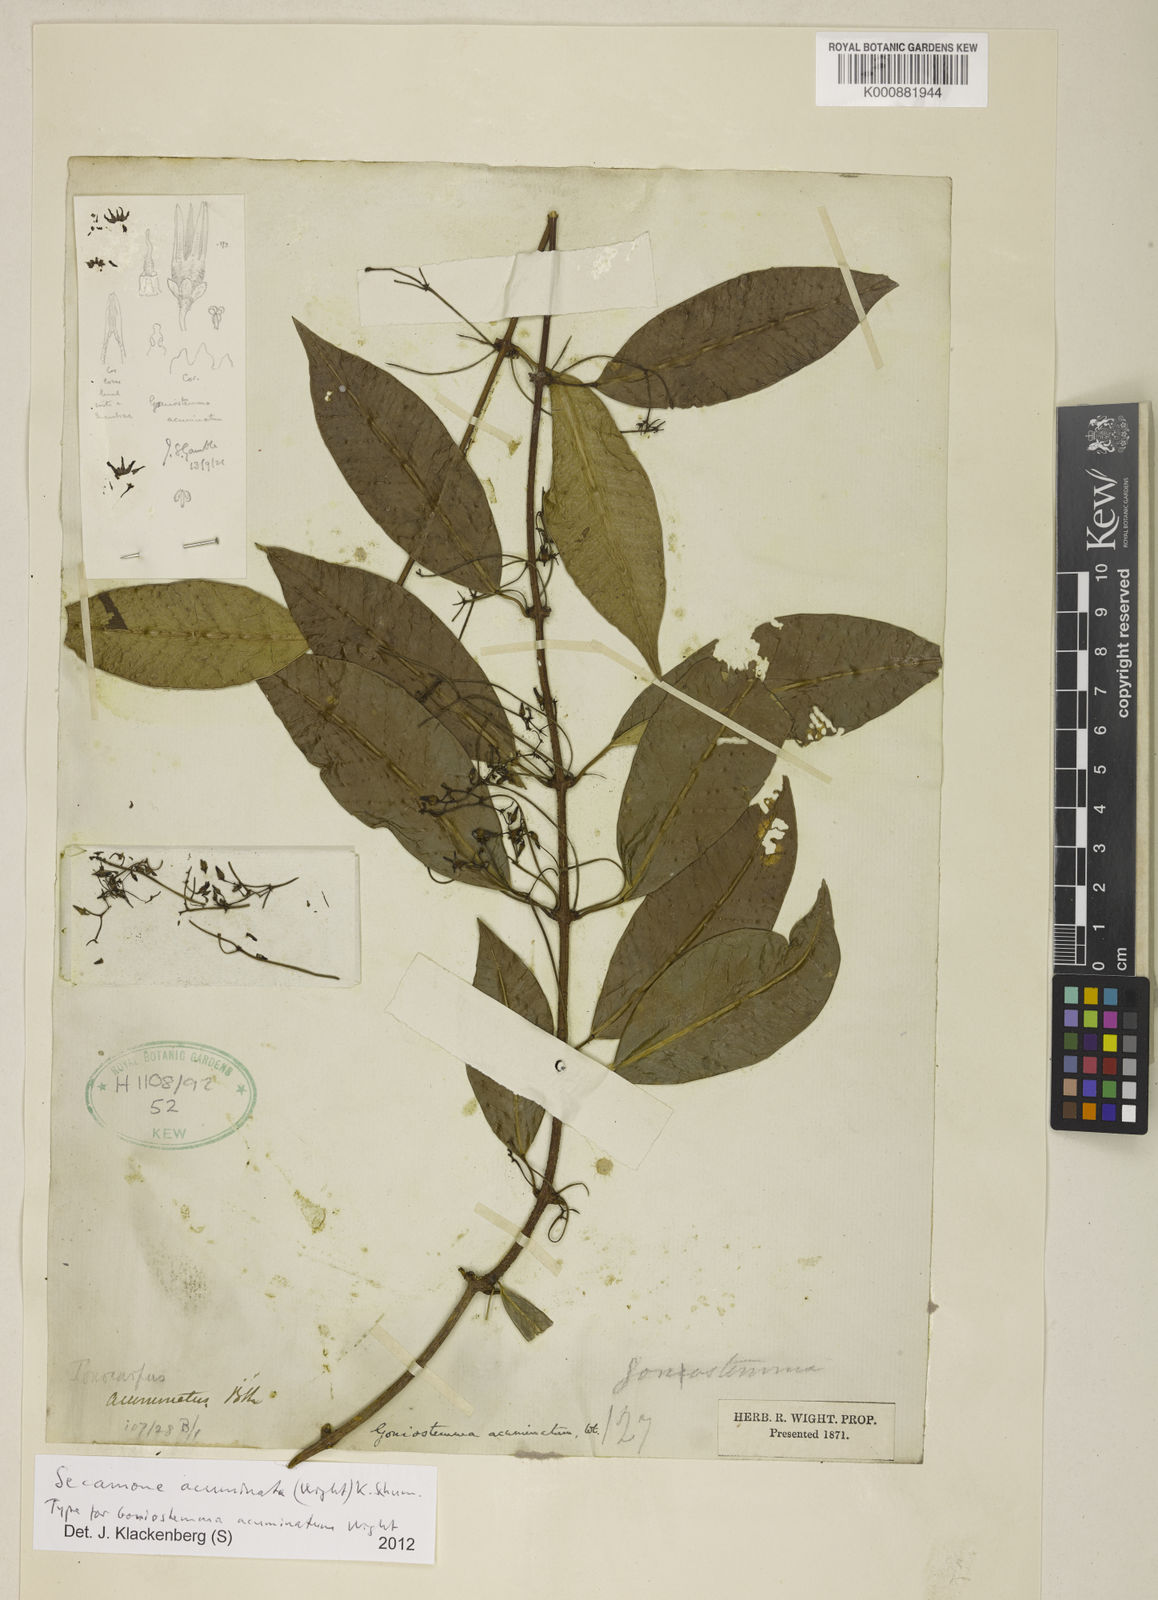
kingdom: Plantae
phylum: Tracheophyta
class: Magnoliopsida
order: Gentianales
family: Apocynaceae
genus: Goniostemma
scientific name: Goniostemma acuminatum
